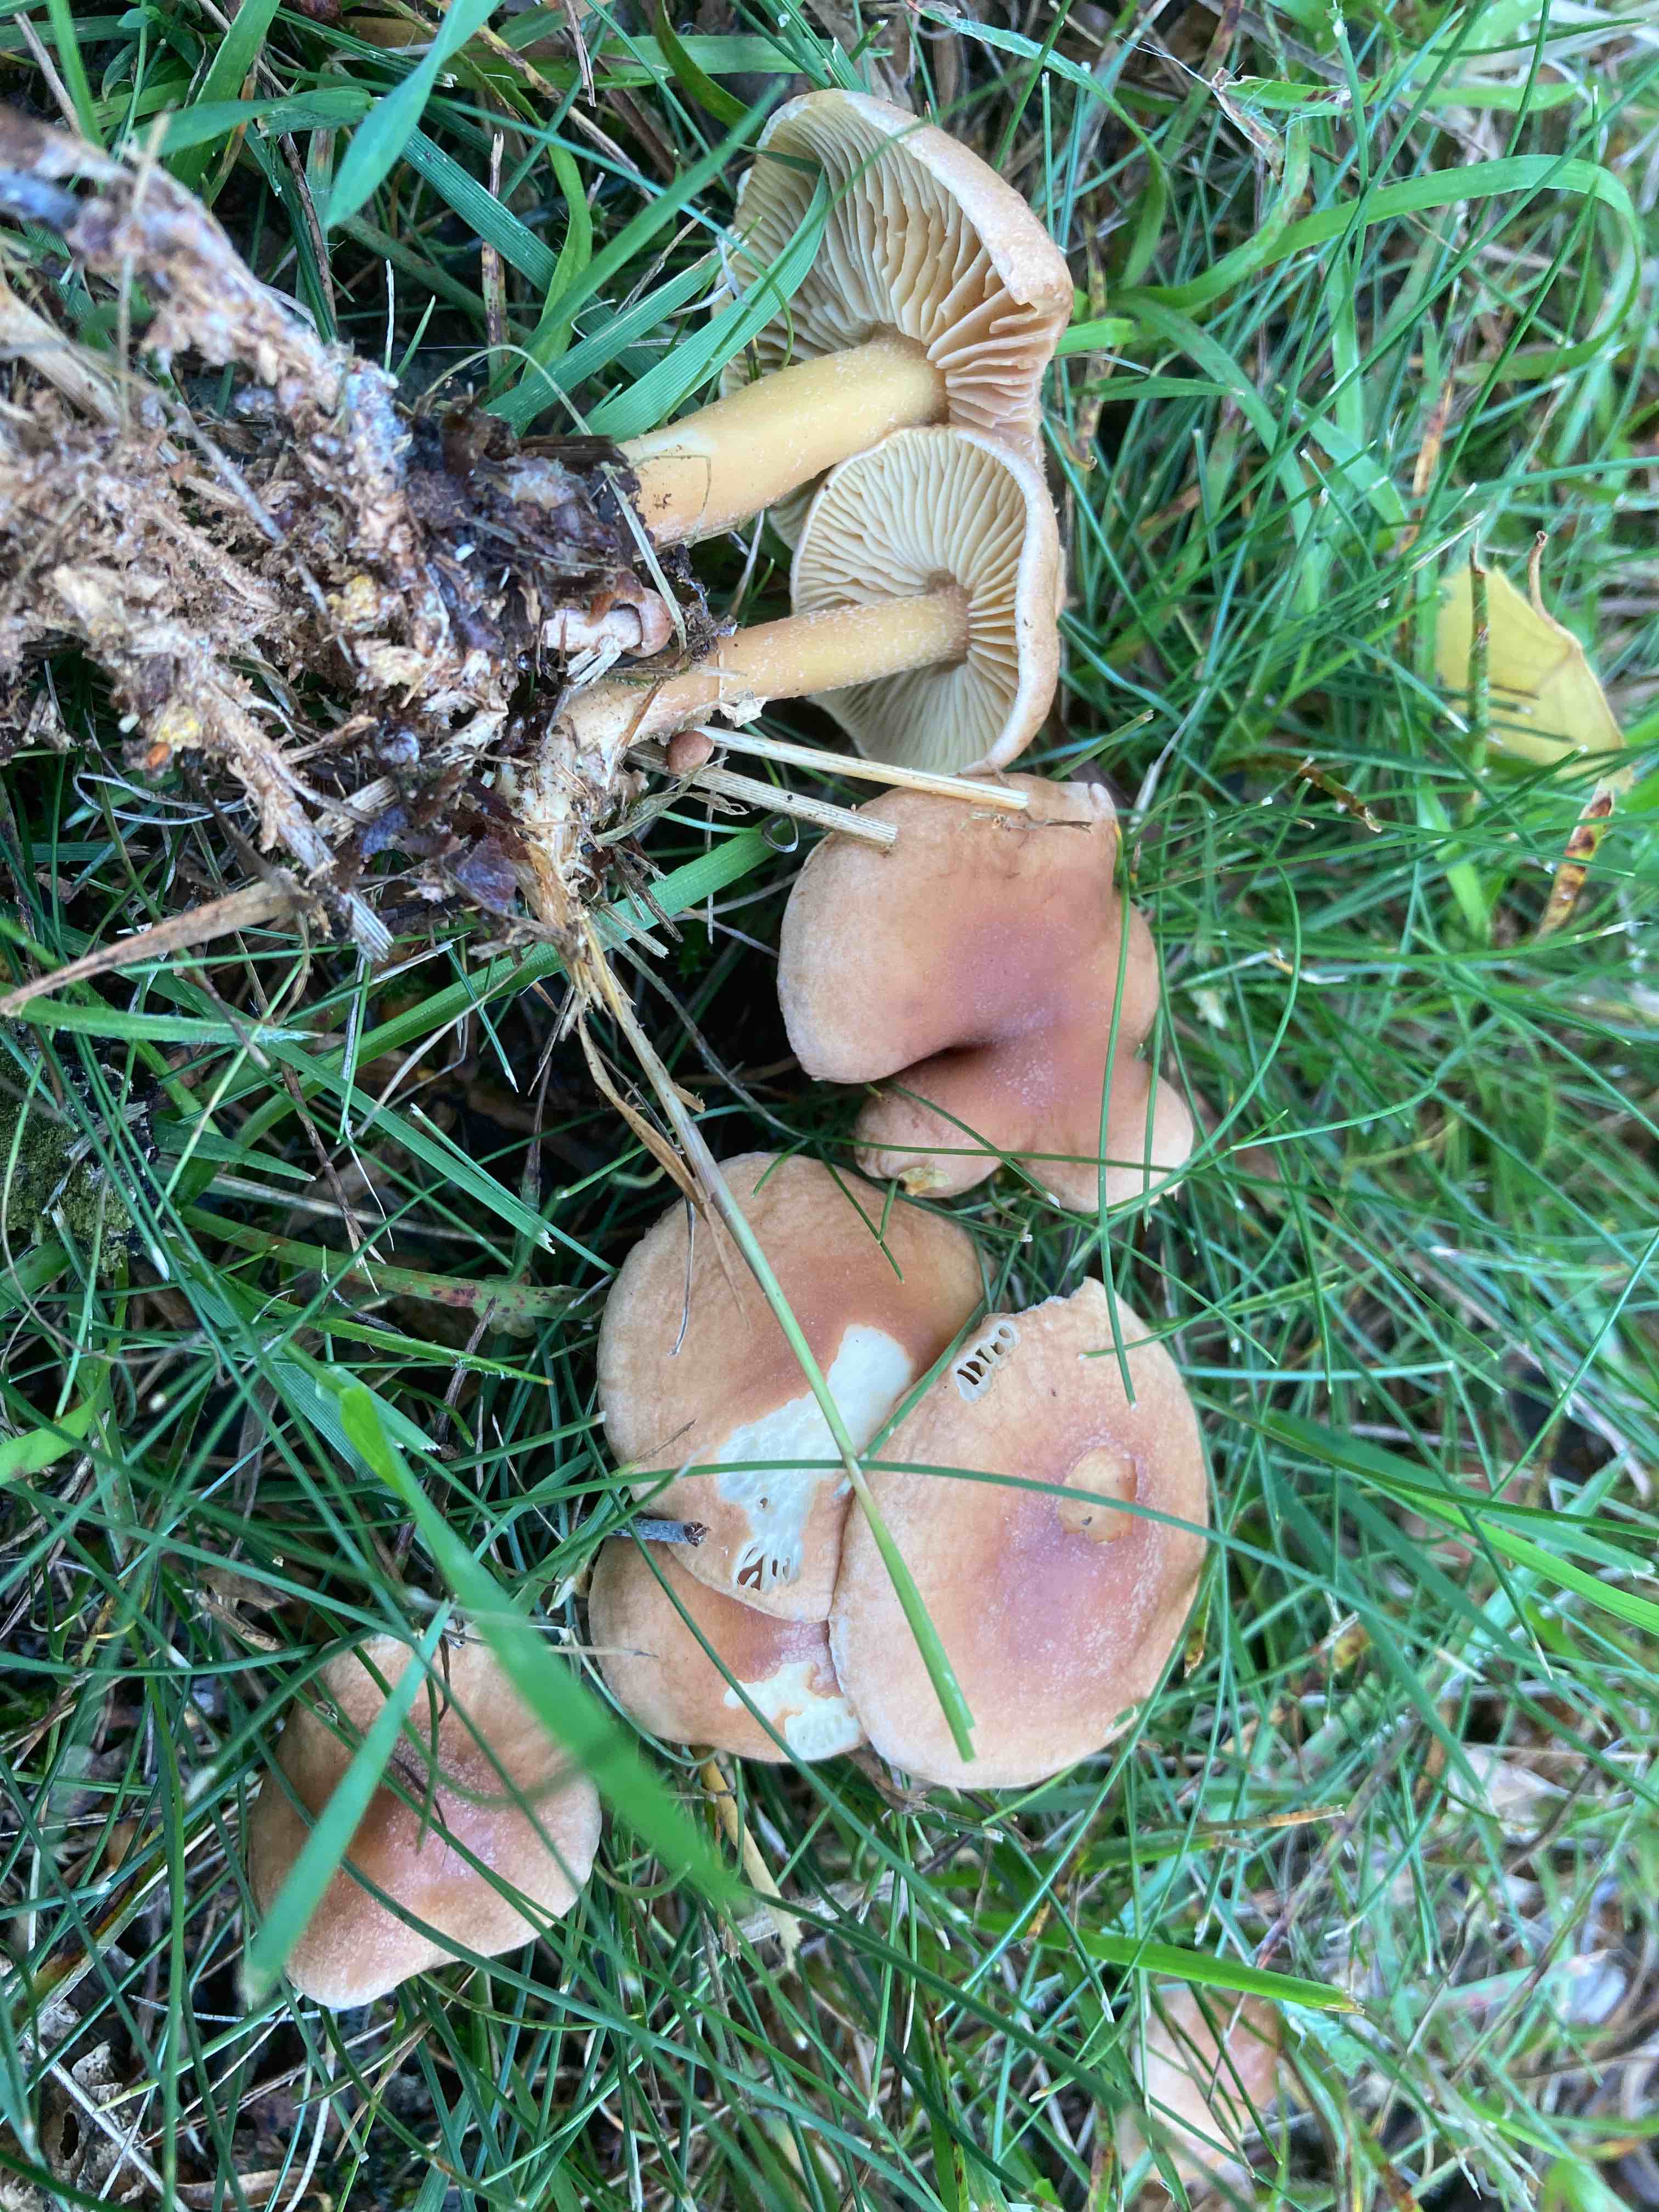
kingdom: Fungi
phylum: Basidiomycota
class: Agaricomycetes
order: Agaricales
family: Omphalotaceae
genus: Collybiopsis
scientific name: Collybiopsis peronata
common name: bestøvlet fladhat
